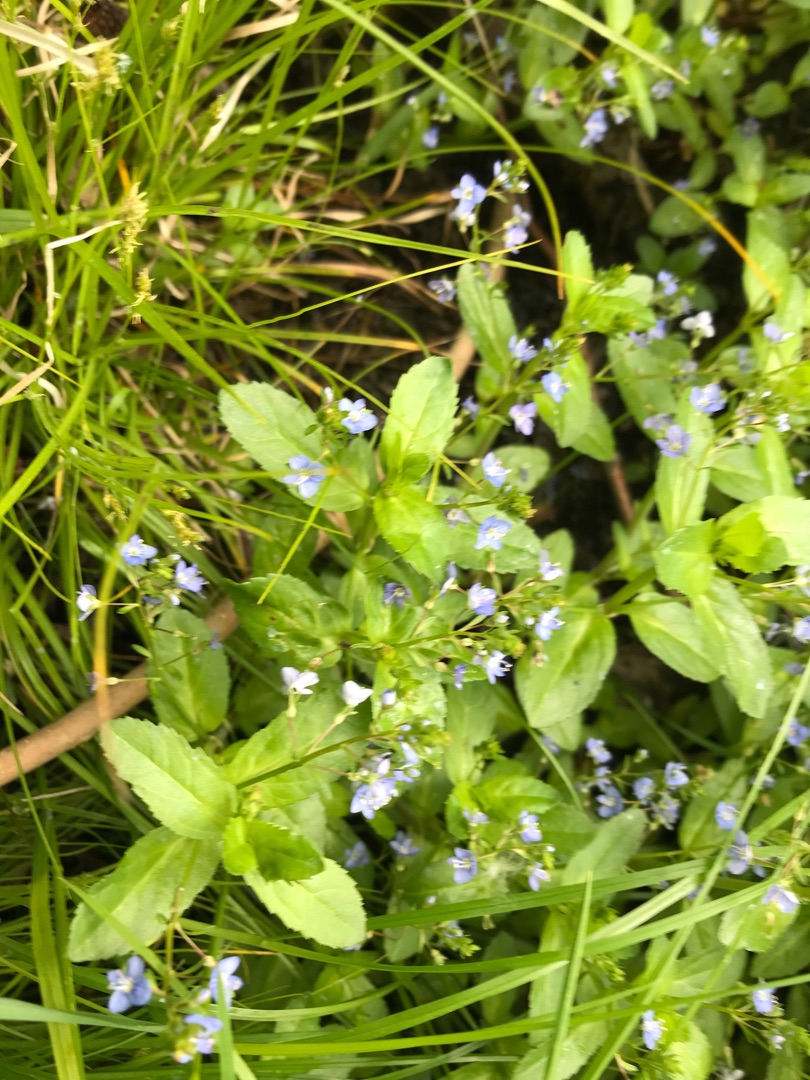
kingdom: Plantae
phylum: Tracheophyta
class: Magnoliopsida
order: Lamiales
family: Plantaginaceae
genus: Veronica
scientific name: Veronica beccabunga
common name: Tykbladet ærenpris
